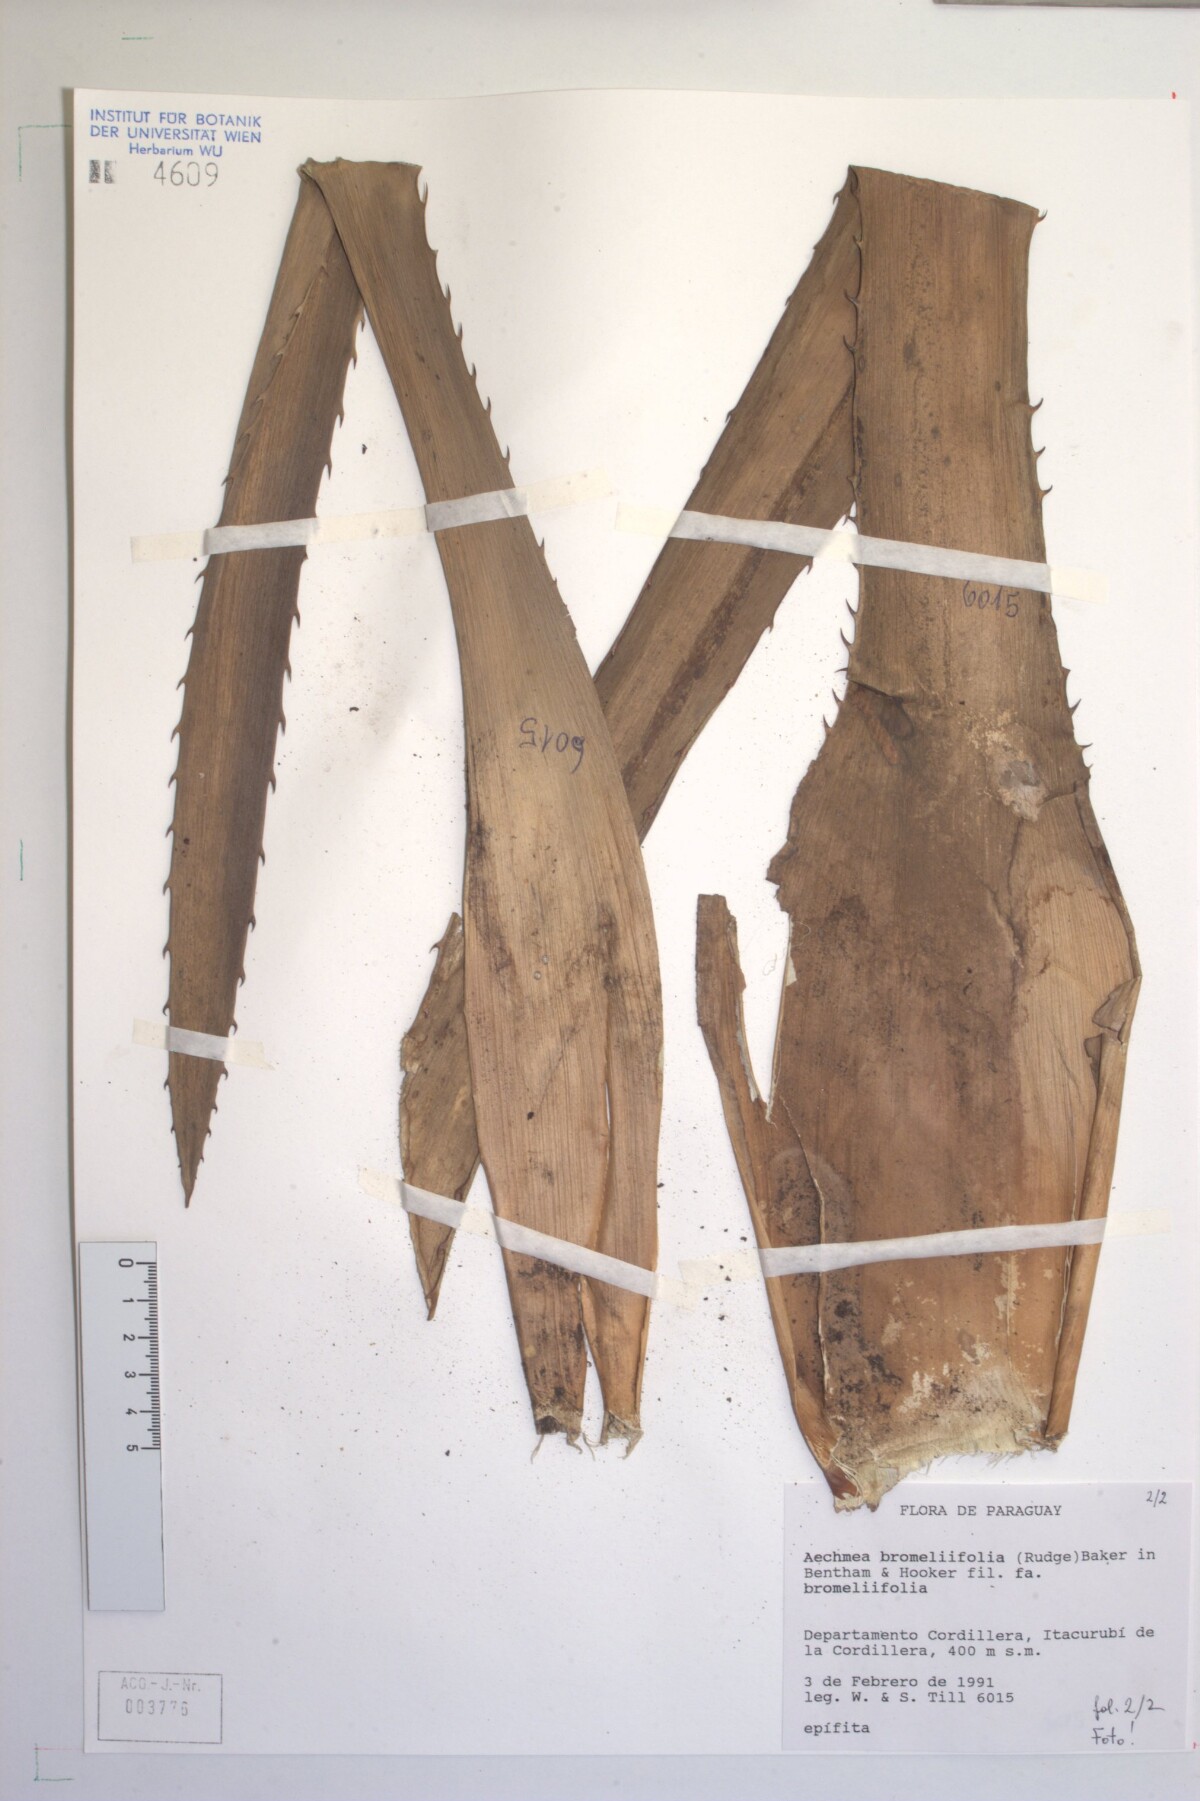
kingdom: Plantae
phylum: Tracheophyta
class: Liliopsida
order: Poales
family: Bromeliaceae
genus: Aechmea
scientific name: Aechmea bromeliifolia
